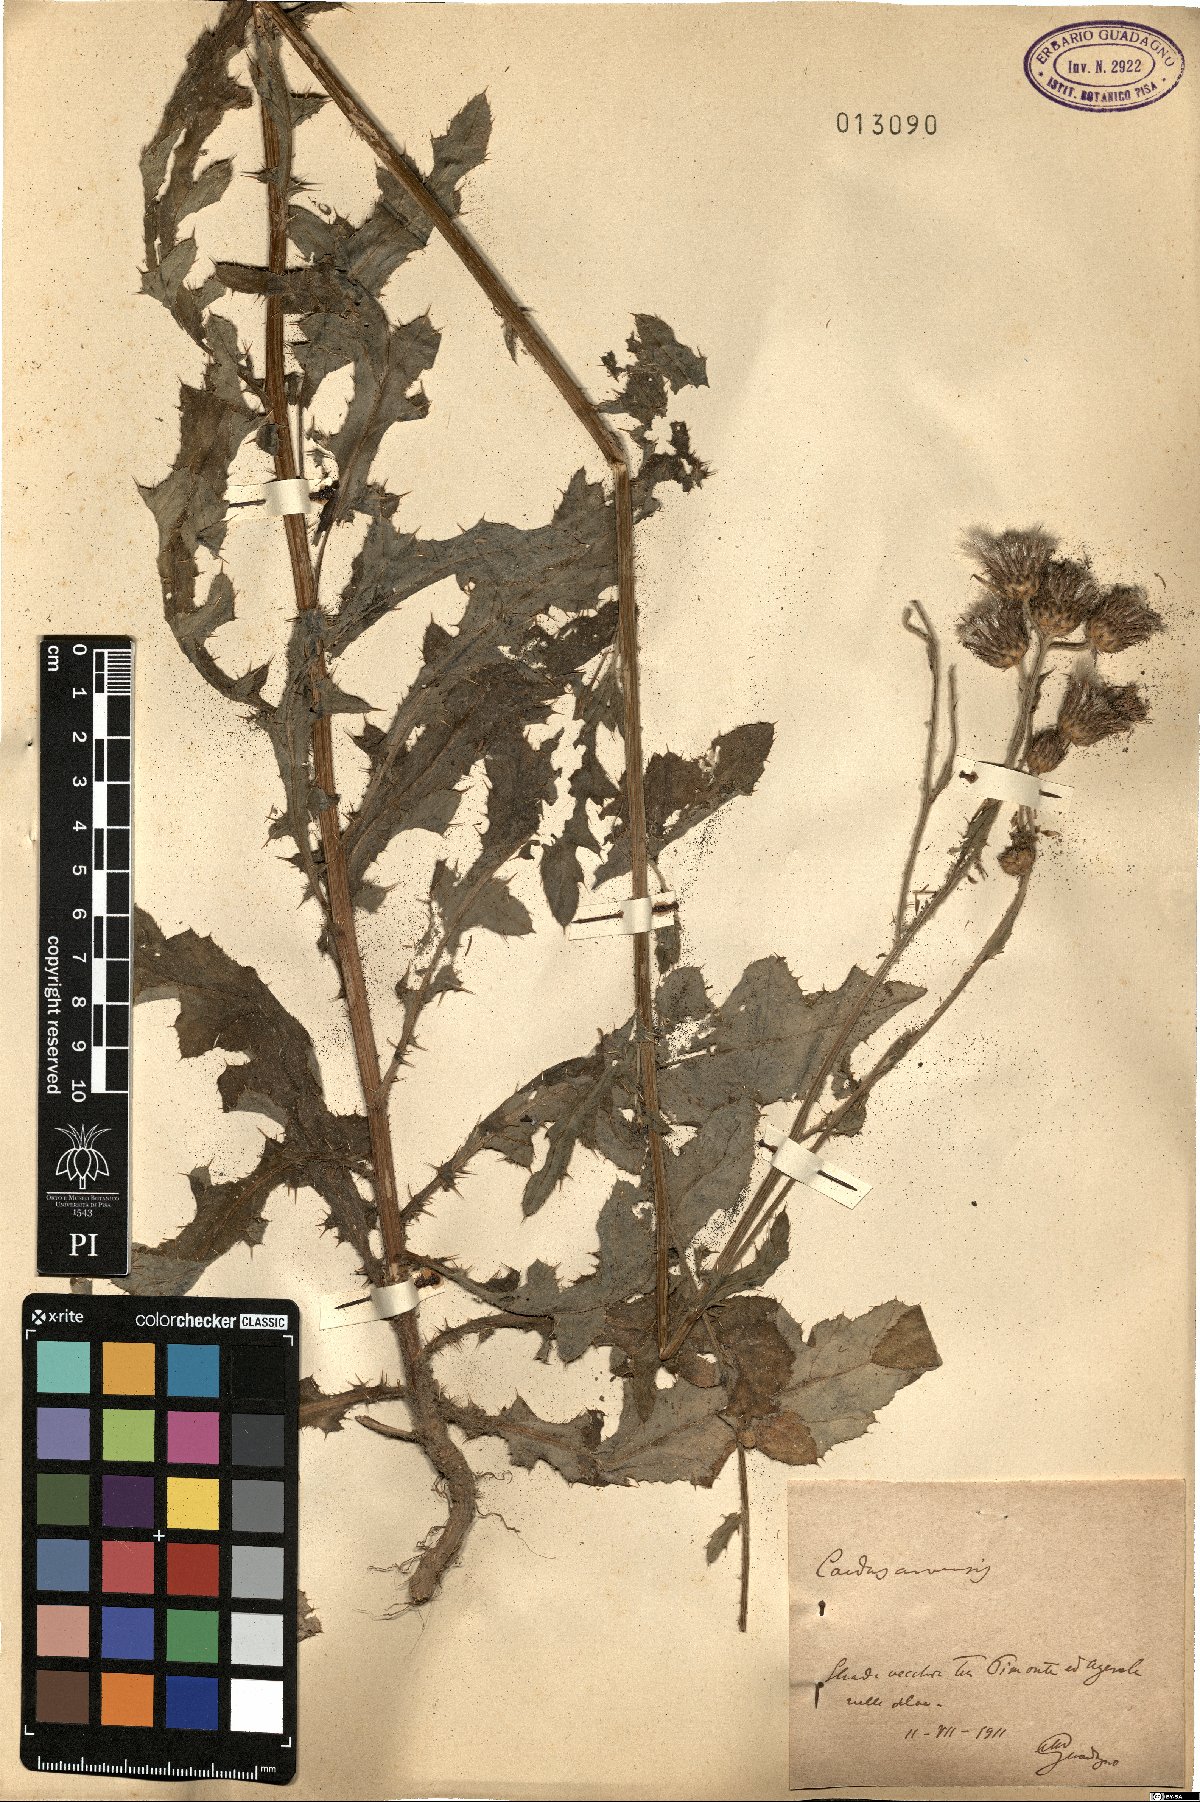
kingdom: Plantae
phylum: Tracheophyta
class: Magnoliopsida
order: Asterales
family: Asteraceae
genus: Cirsium
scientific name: Cirsium arvense
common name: Creeping thistle
